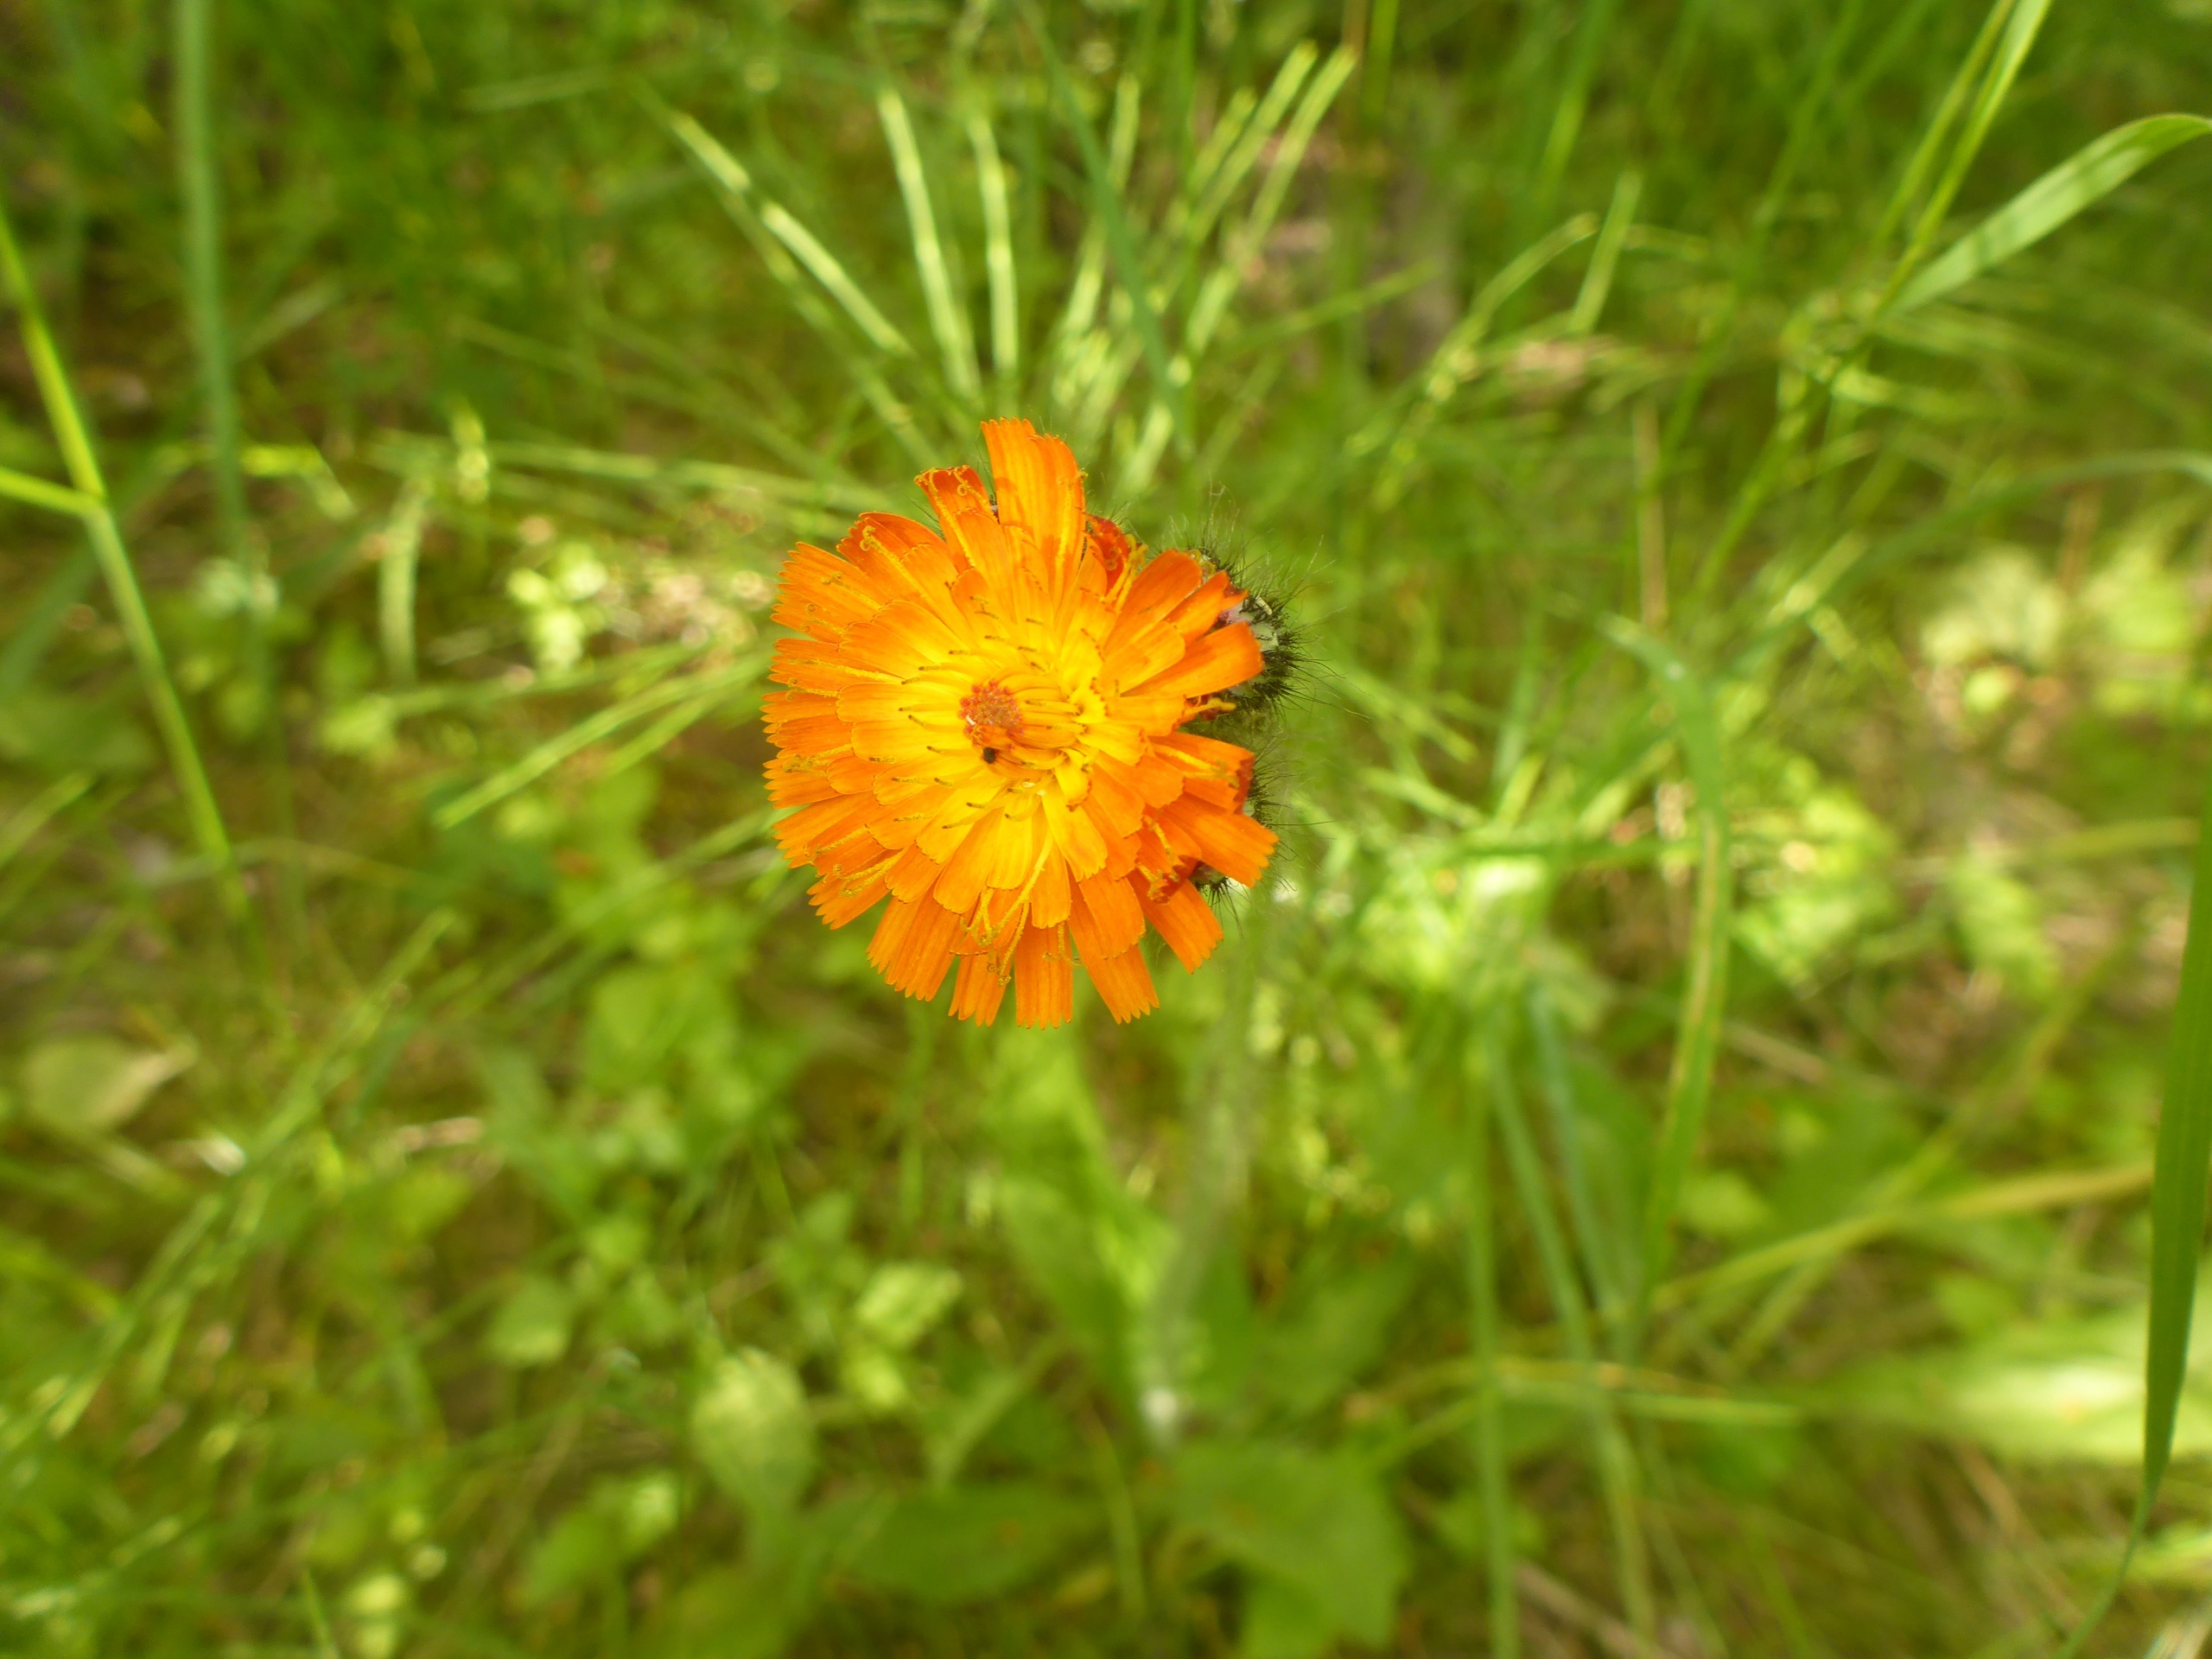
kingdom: Plantae
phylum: Tracheophyta
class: Magnoliopsida
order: Asterales
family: Asteraceae
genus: Pilosella
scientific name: Pilosella aurantiaca
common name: Pomerans-høgeurt
